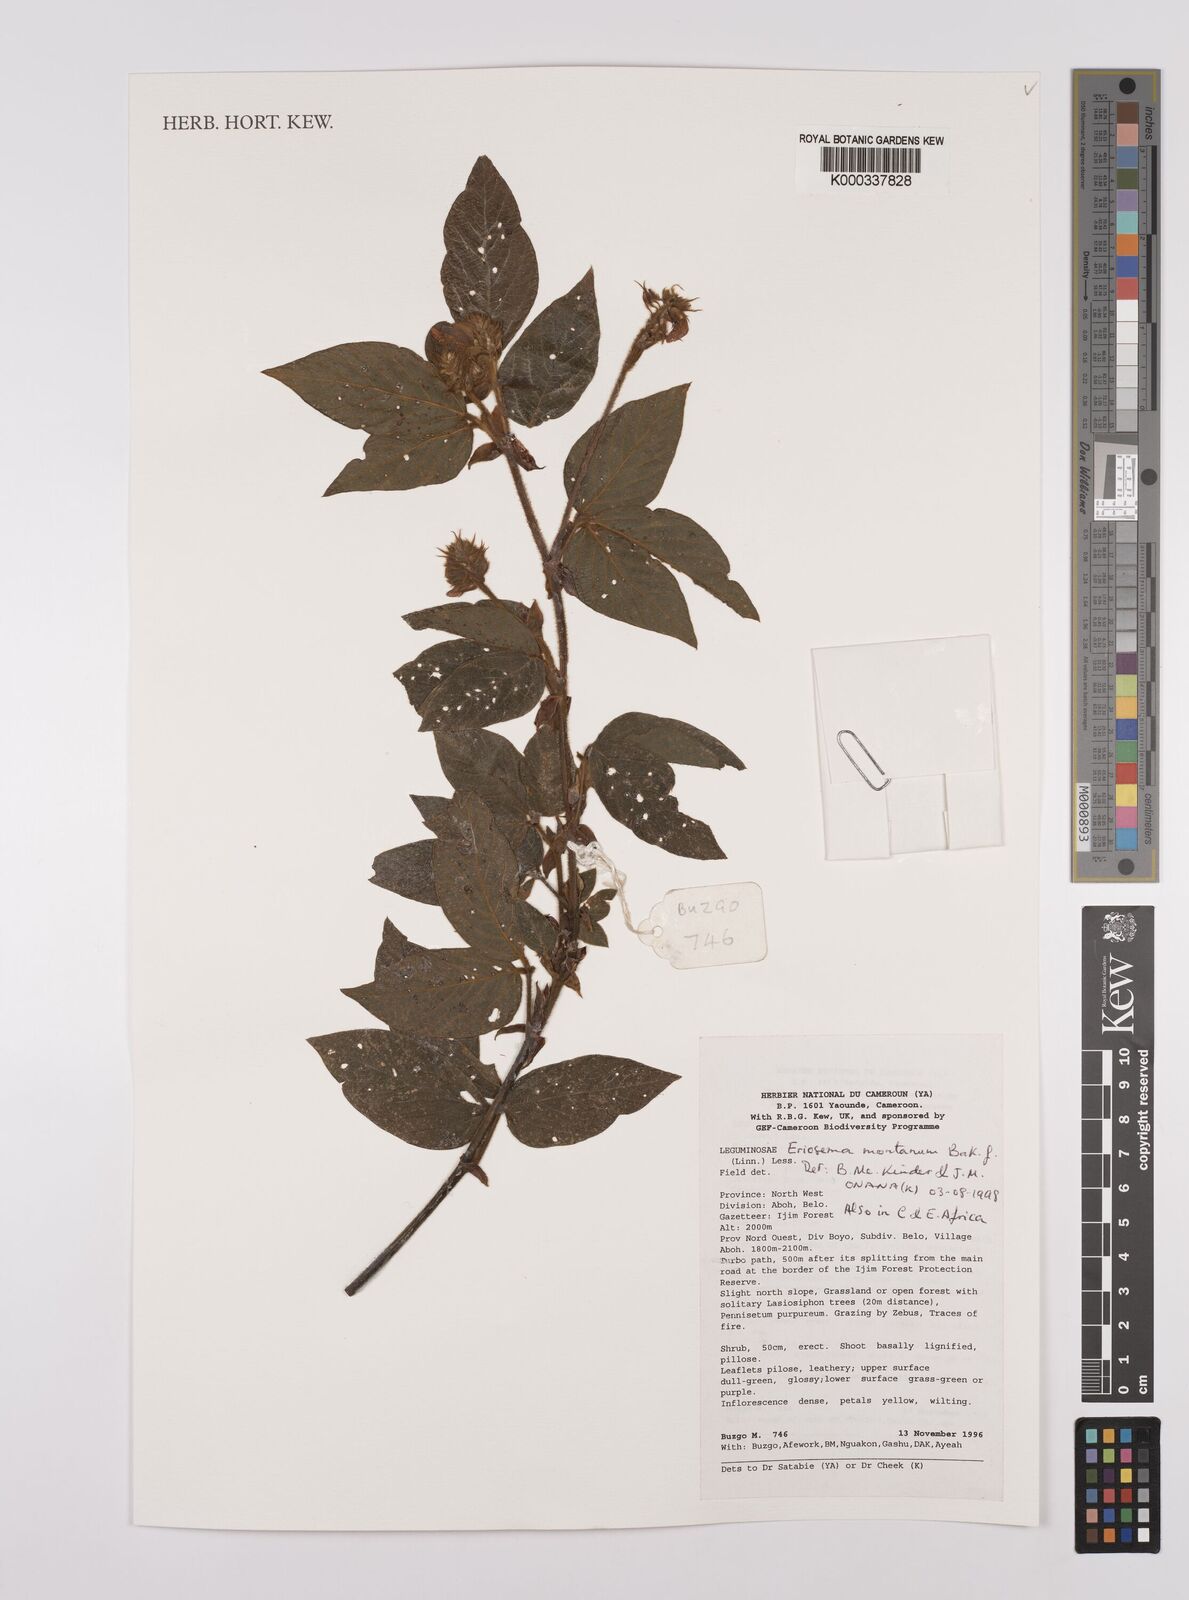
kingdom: Plantae
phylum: Tracheophyta
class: Magnoliopsida
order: Fabales
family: Fabaceae
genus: Eriosema
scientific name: Eriosema montanum
